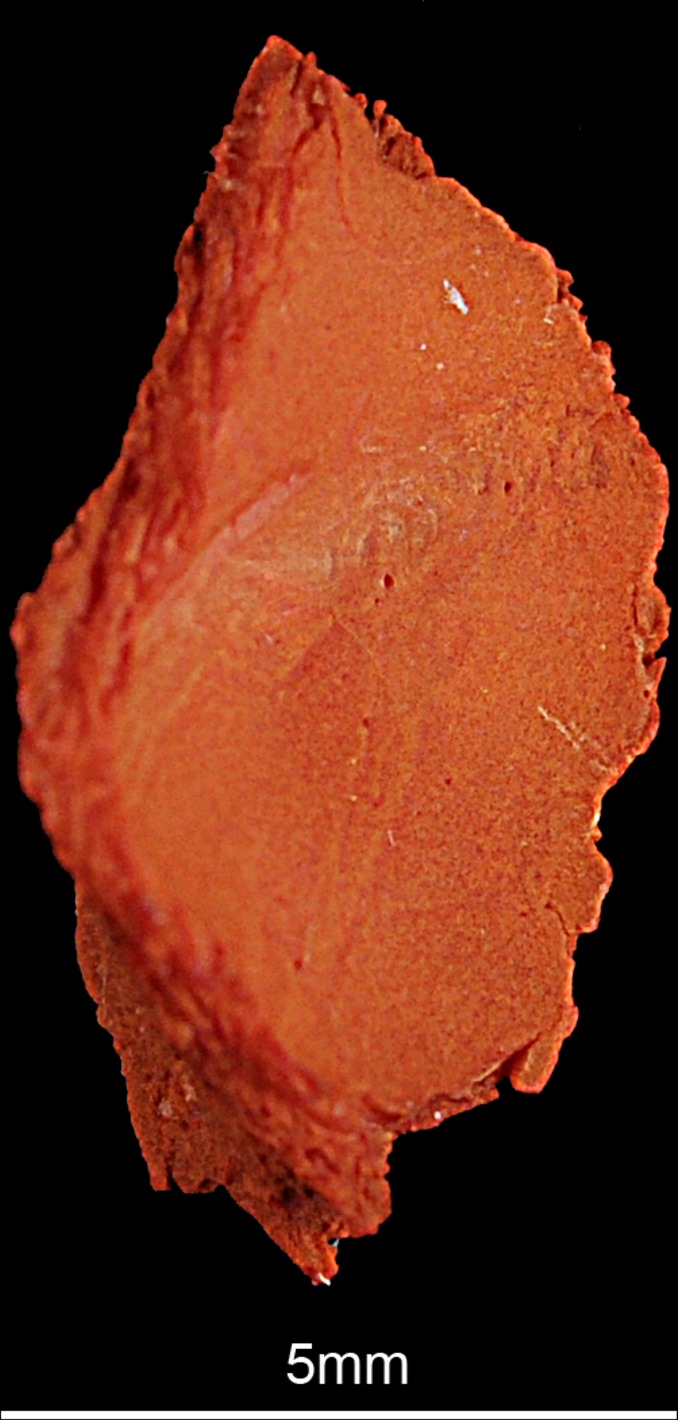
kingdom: Animalia
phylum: Chordata
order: Perciformes
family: Percidae
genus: Sander
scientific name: Sander lucioperca
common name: Pikeperch
